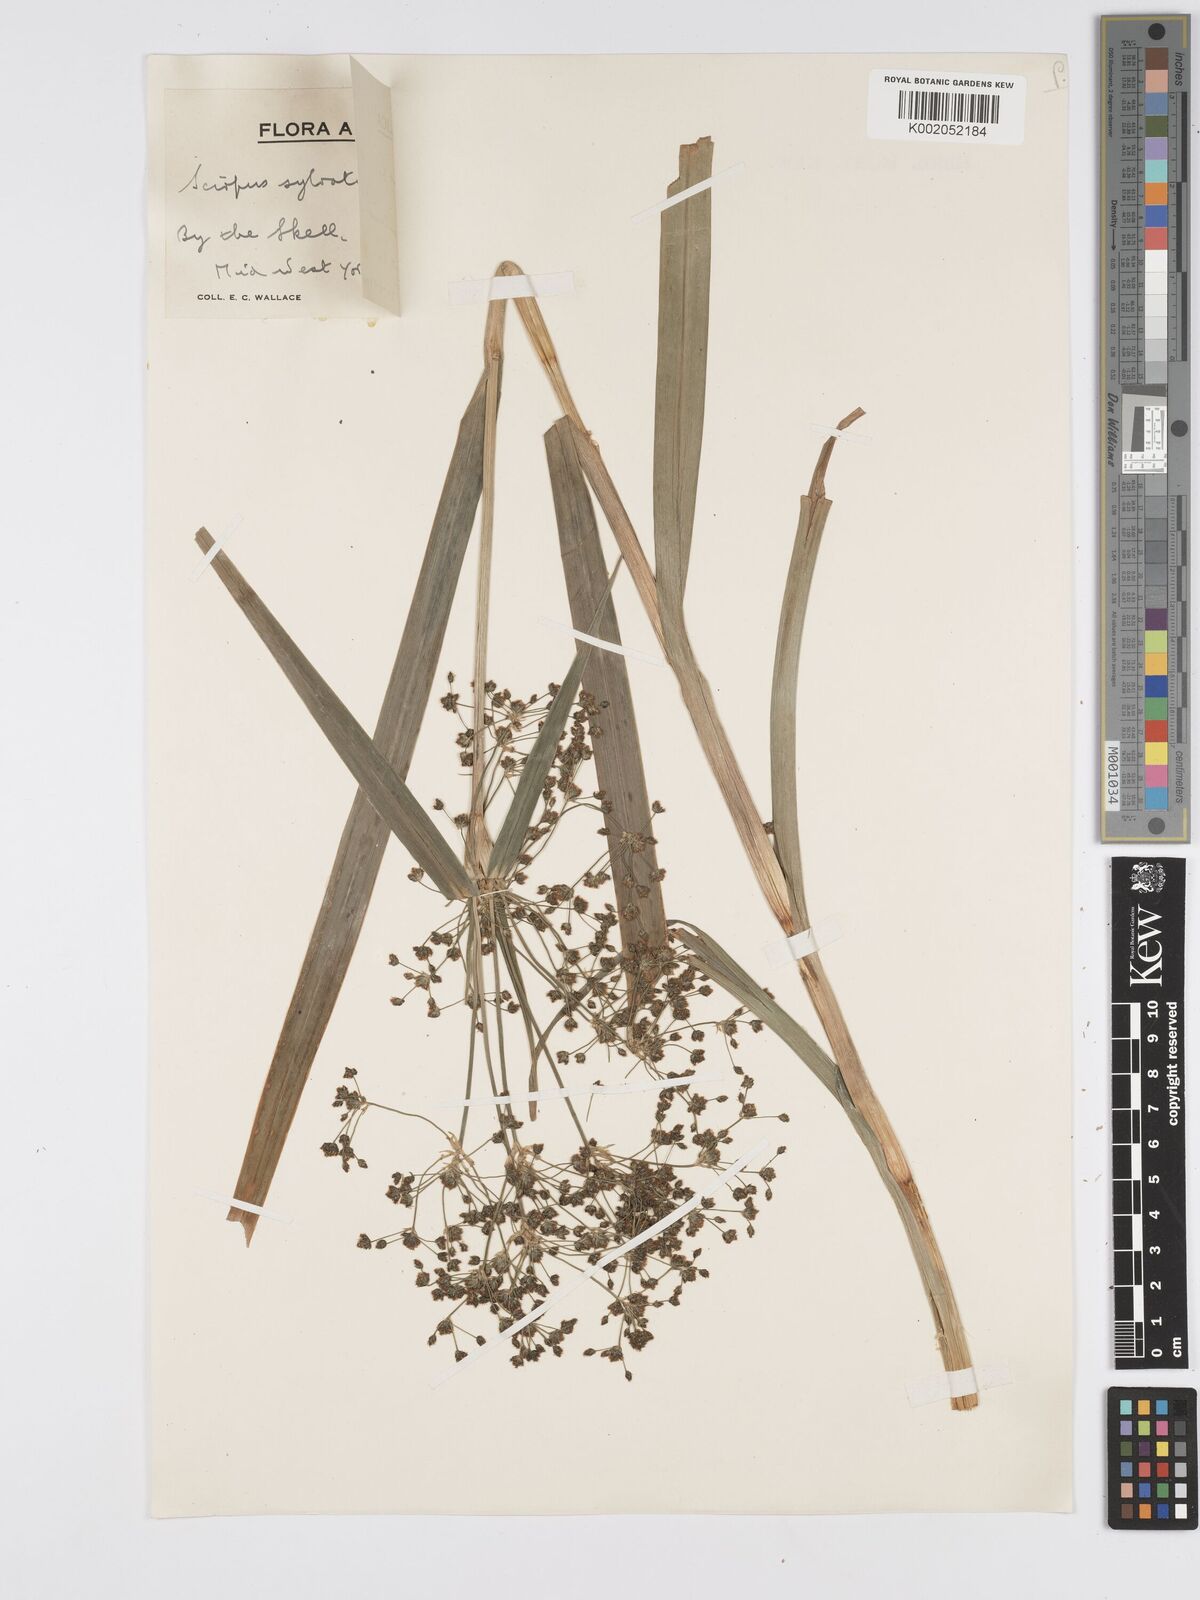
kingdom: Plantae
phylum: Tracheophyta
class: Liliopsida
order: Poales
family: Cyperaceae
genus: Scirpus
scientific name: Scirpus sylvaticus
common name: Wood club-rush
